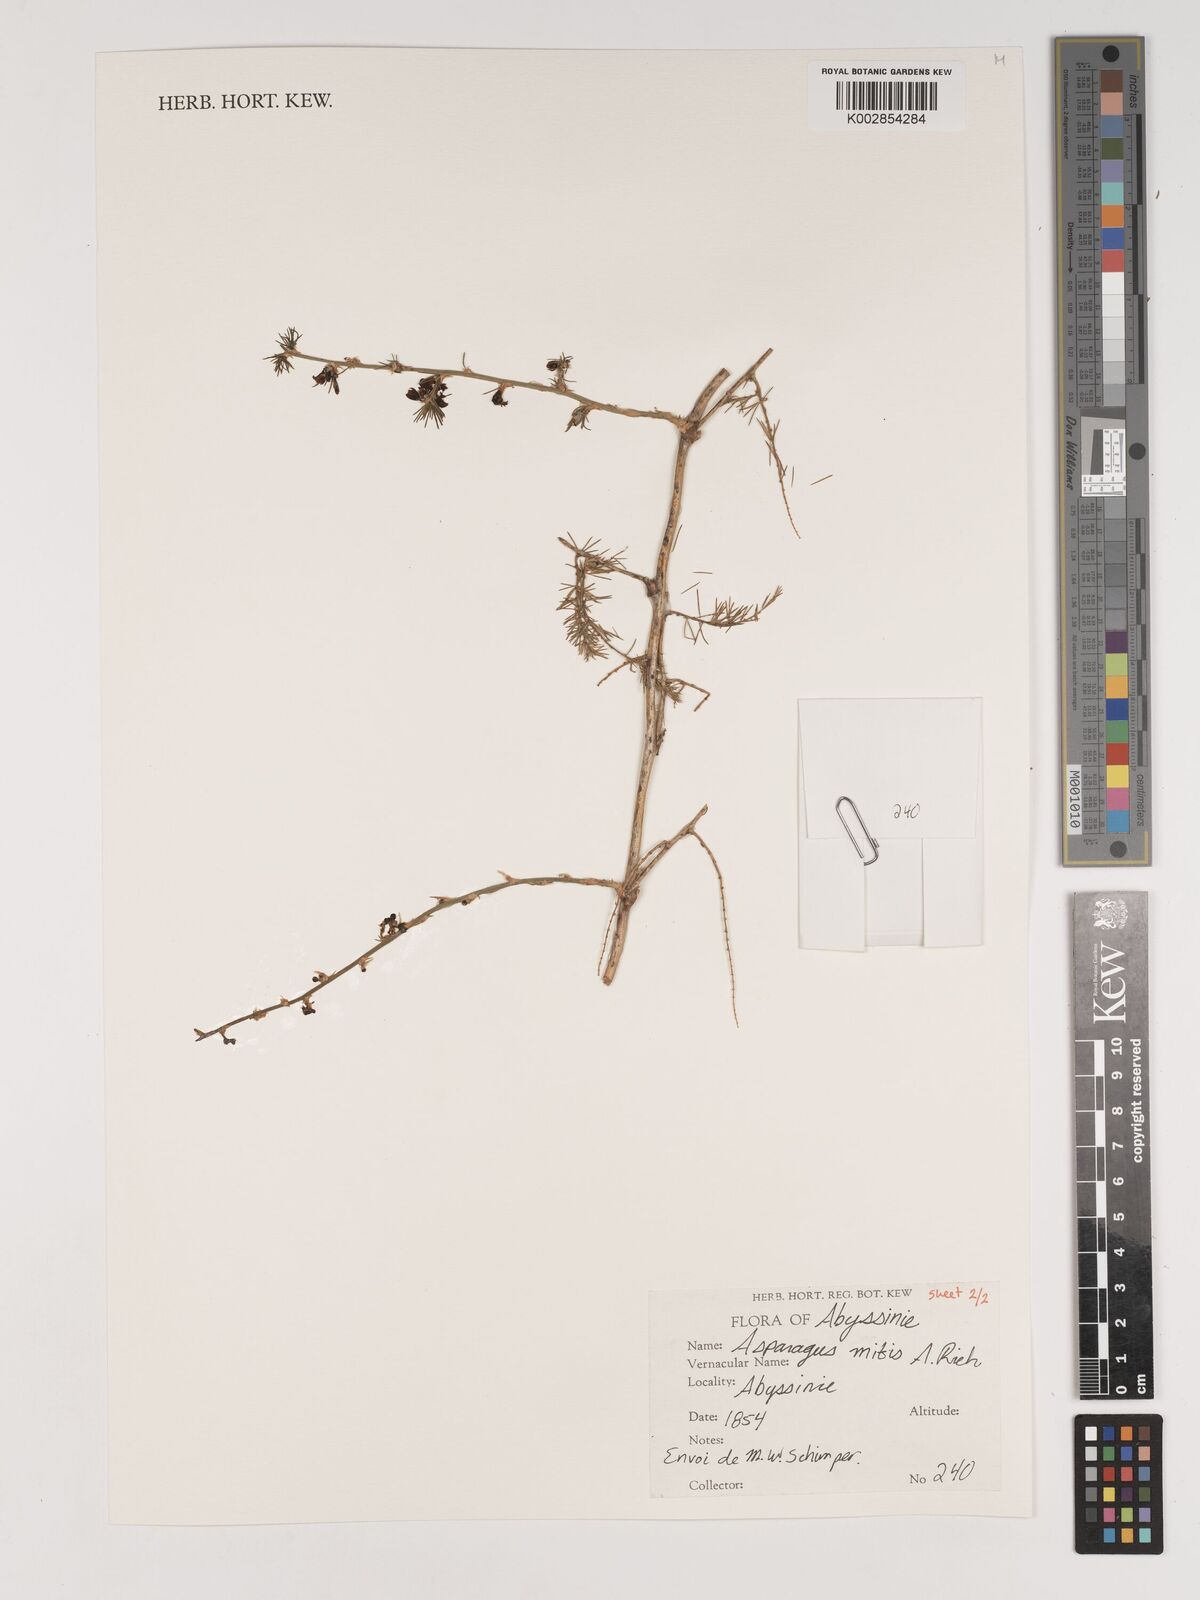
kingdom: Plantae
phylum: Tracheophyta
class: Liliopsida
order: Asparagales
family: Asparagaceae
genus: Asparagus
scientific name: Asparagus africanus
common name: Asparagus-fern
